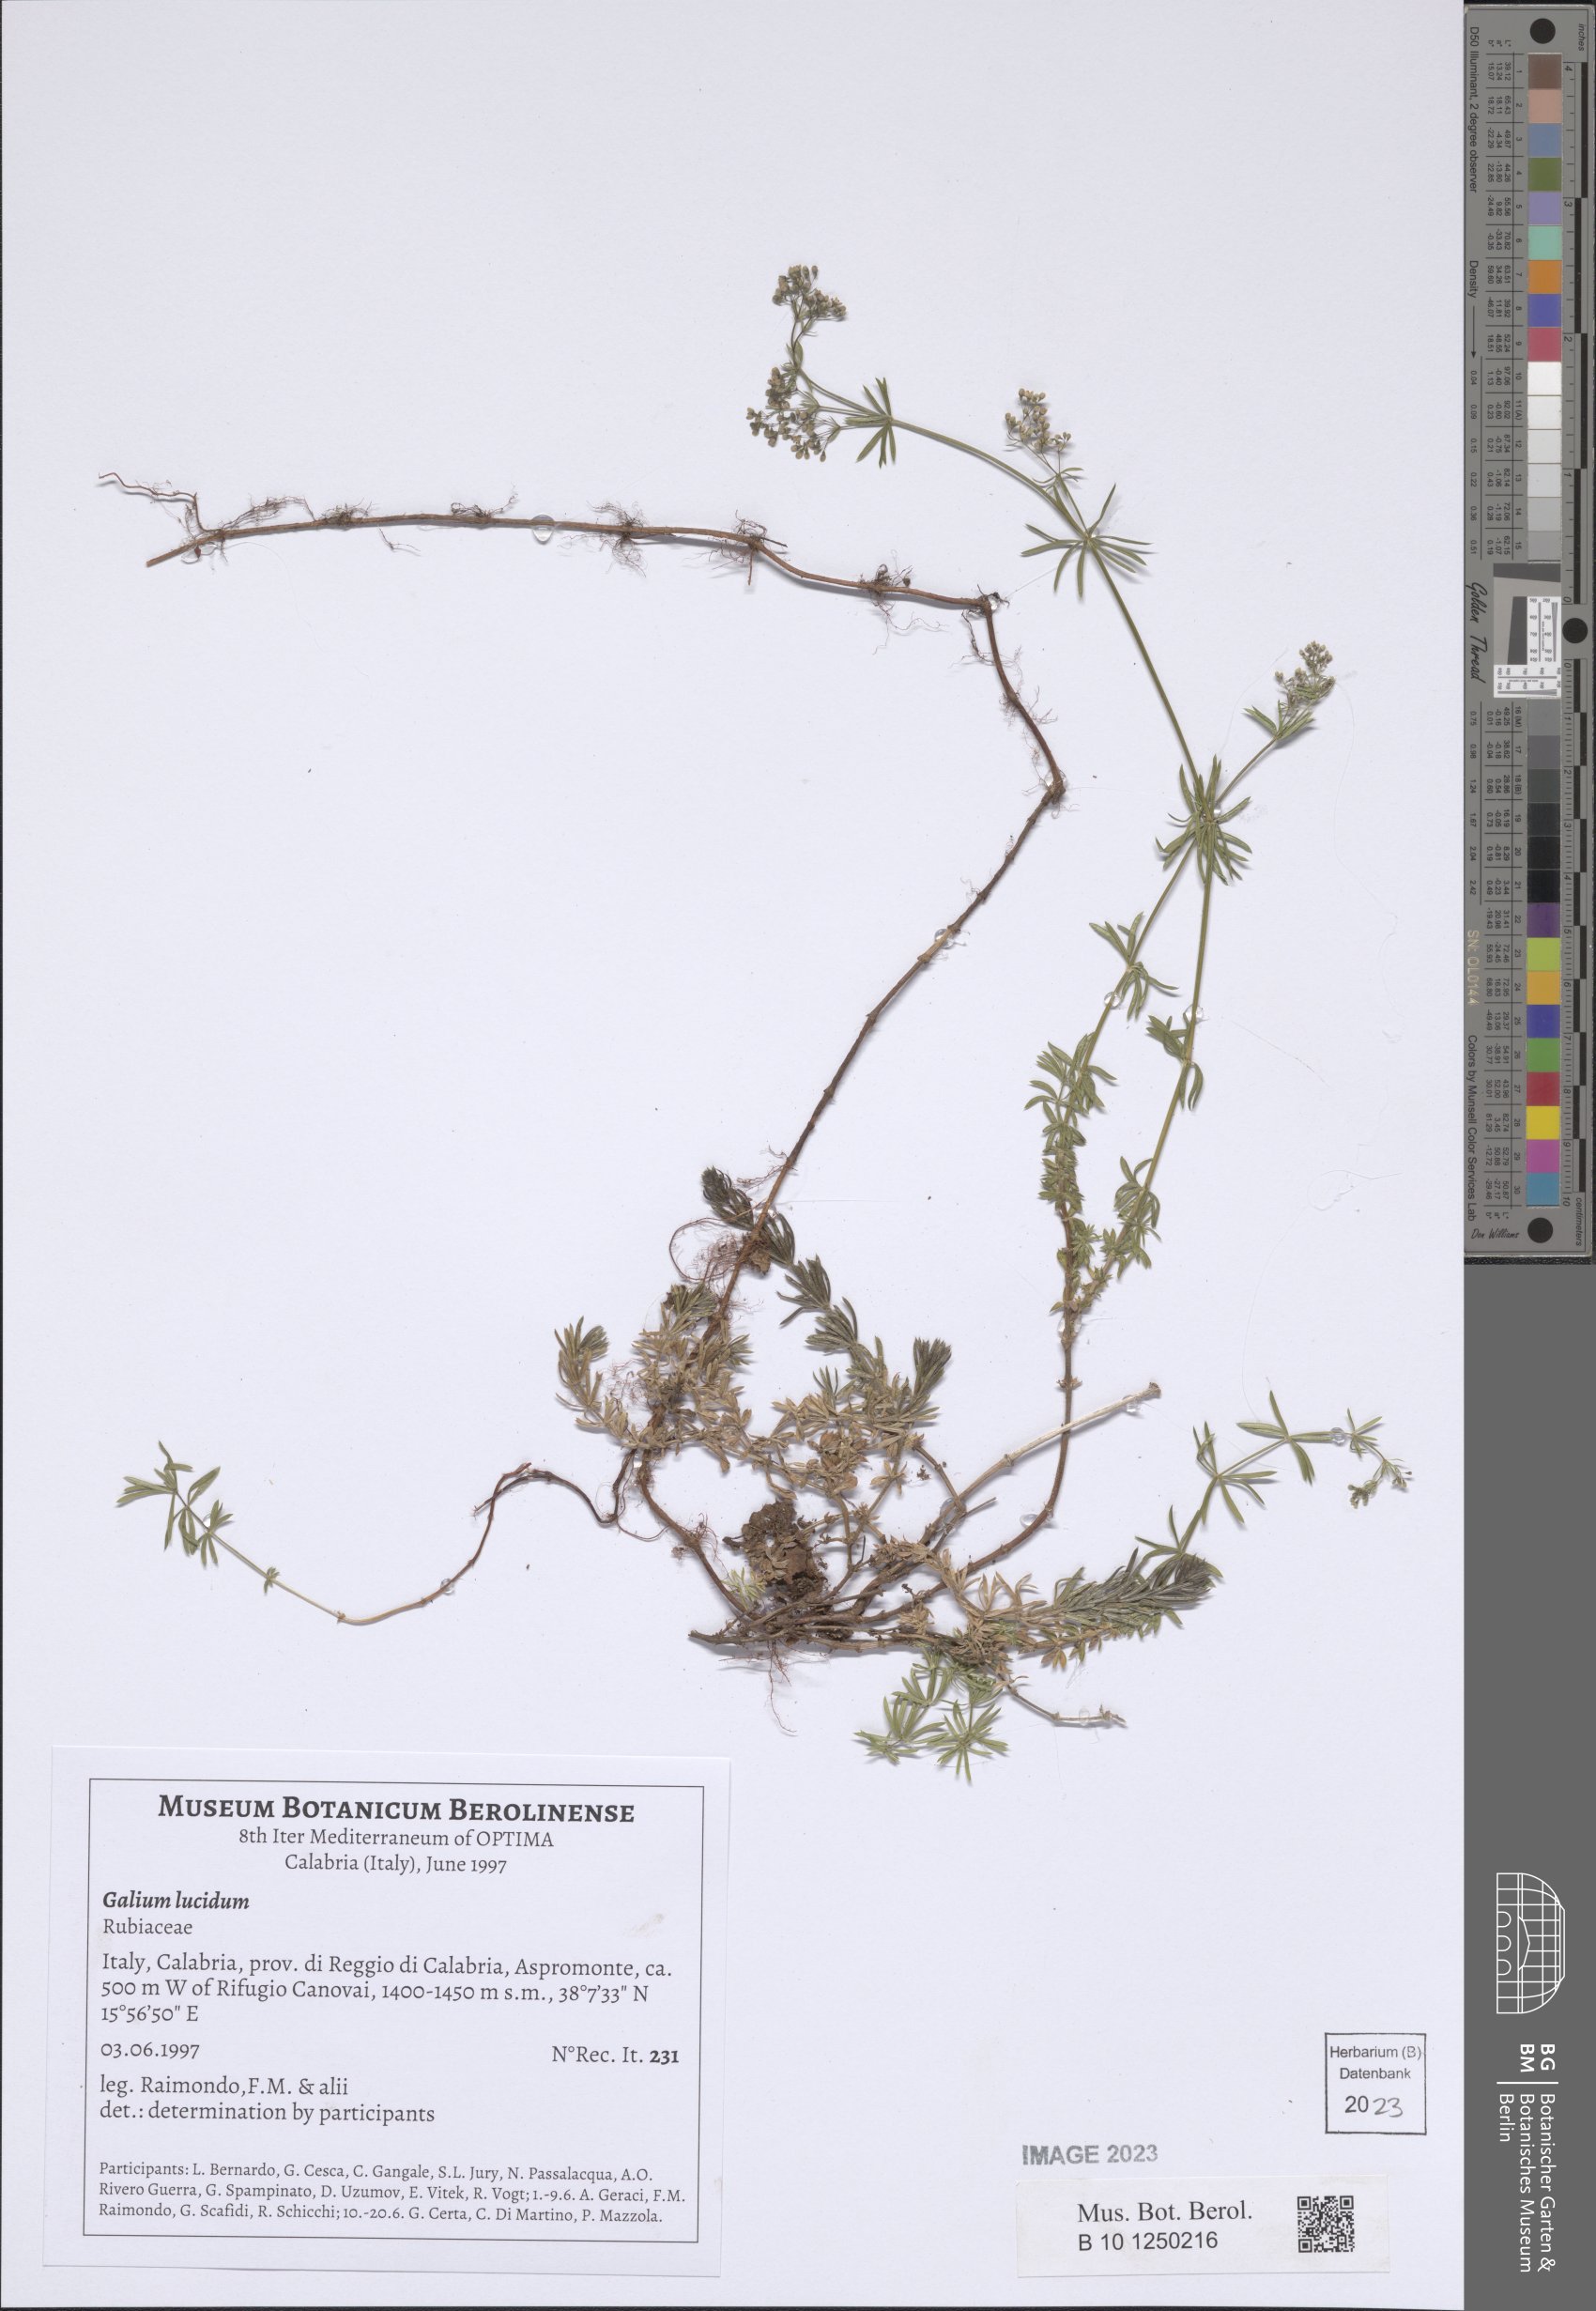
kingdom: Plantae
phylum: Tracheophyta
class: Magnoliopsida
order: Gentianales
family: Rubiaceae
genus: Galium
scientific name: Galium lucidum
